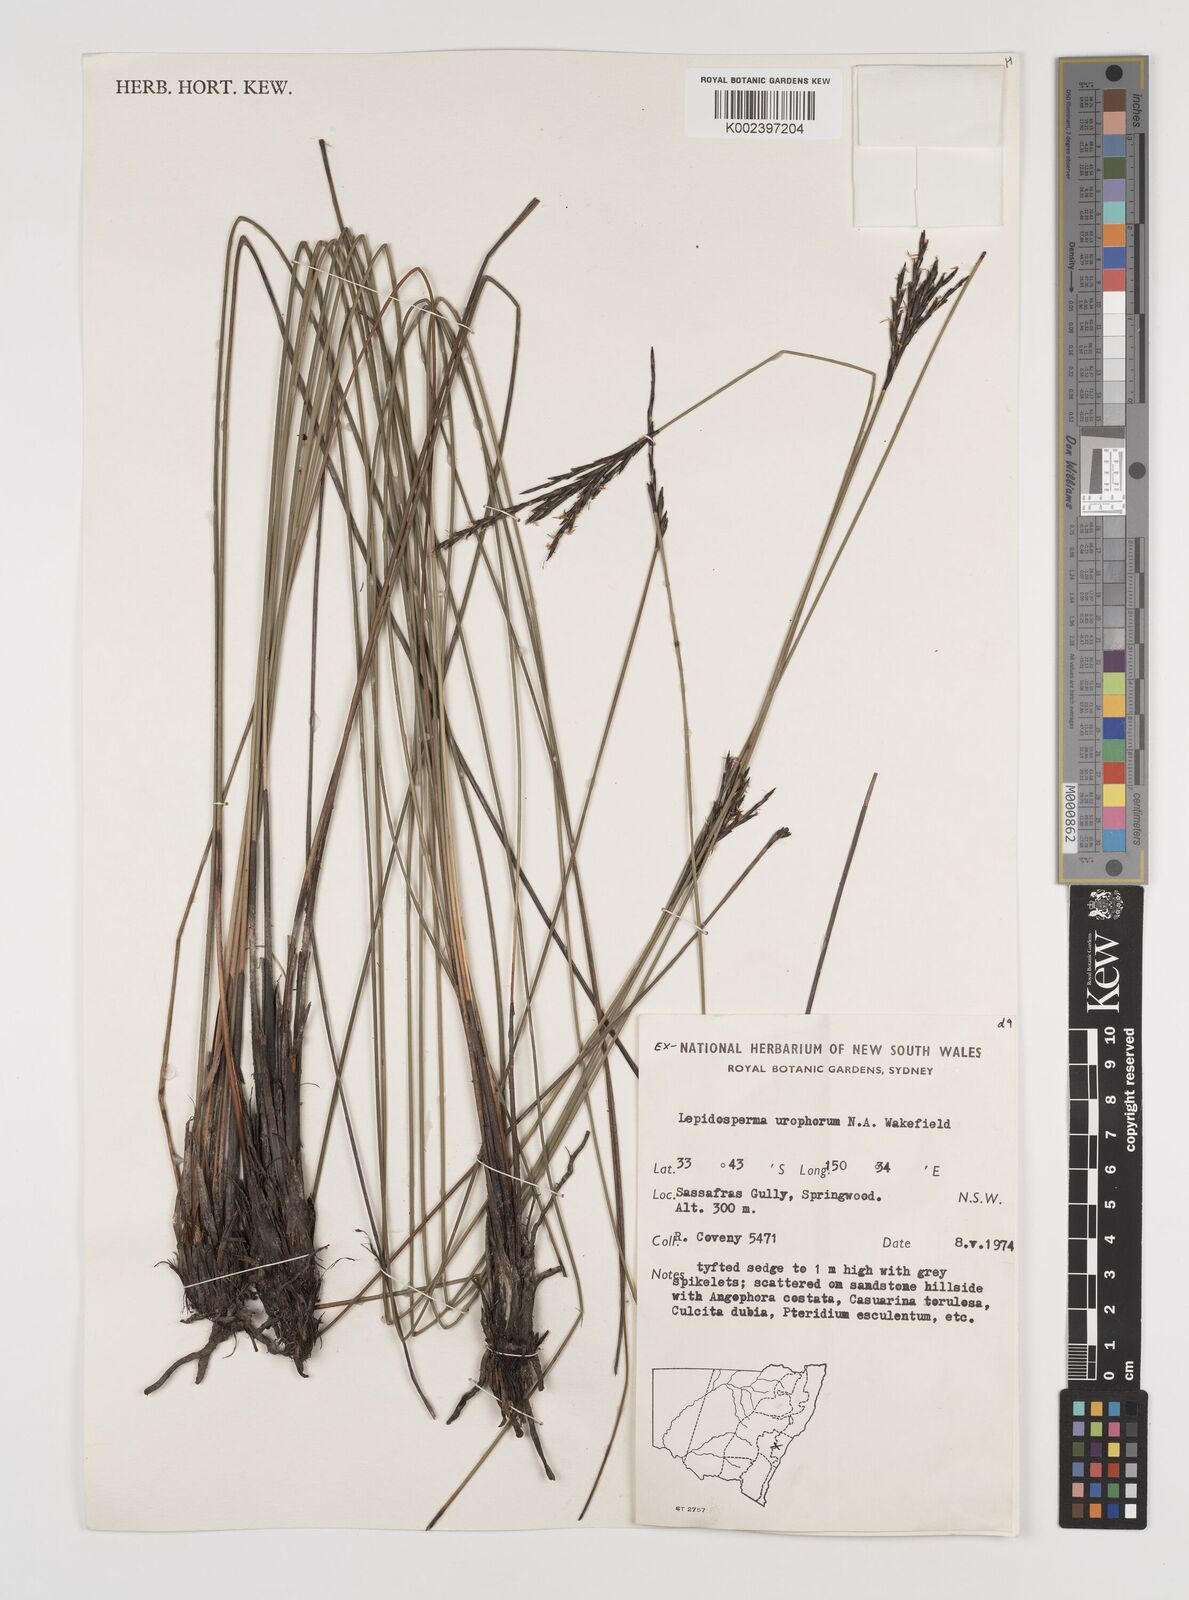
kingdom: Plantae
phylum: Tracheophyta
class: Liliopsida
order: Poales
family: Cyperaceae
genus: Lepidosperma
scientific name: Lepidosperma urophorum
